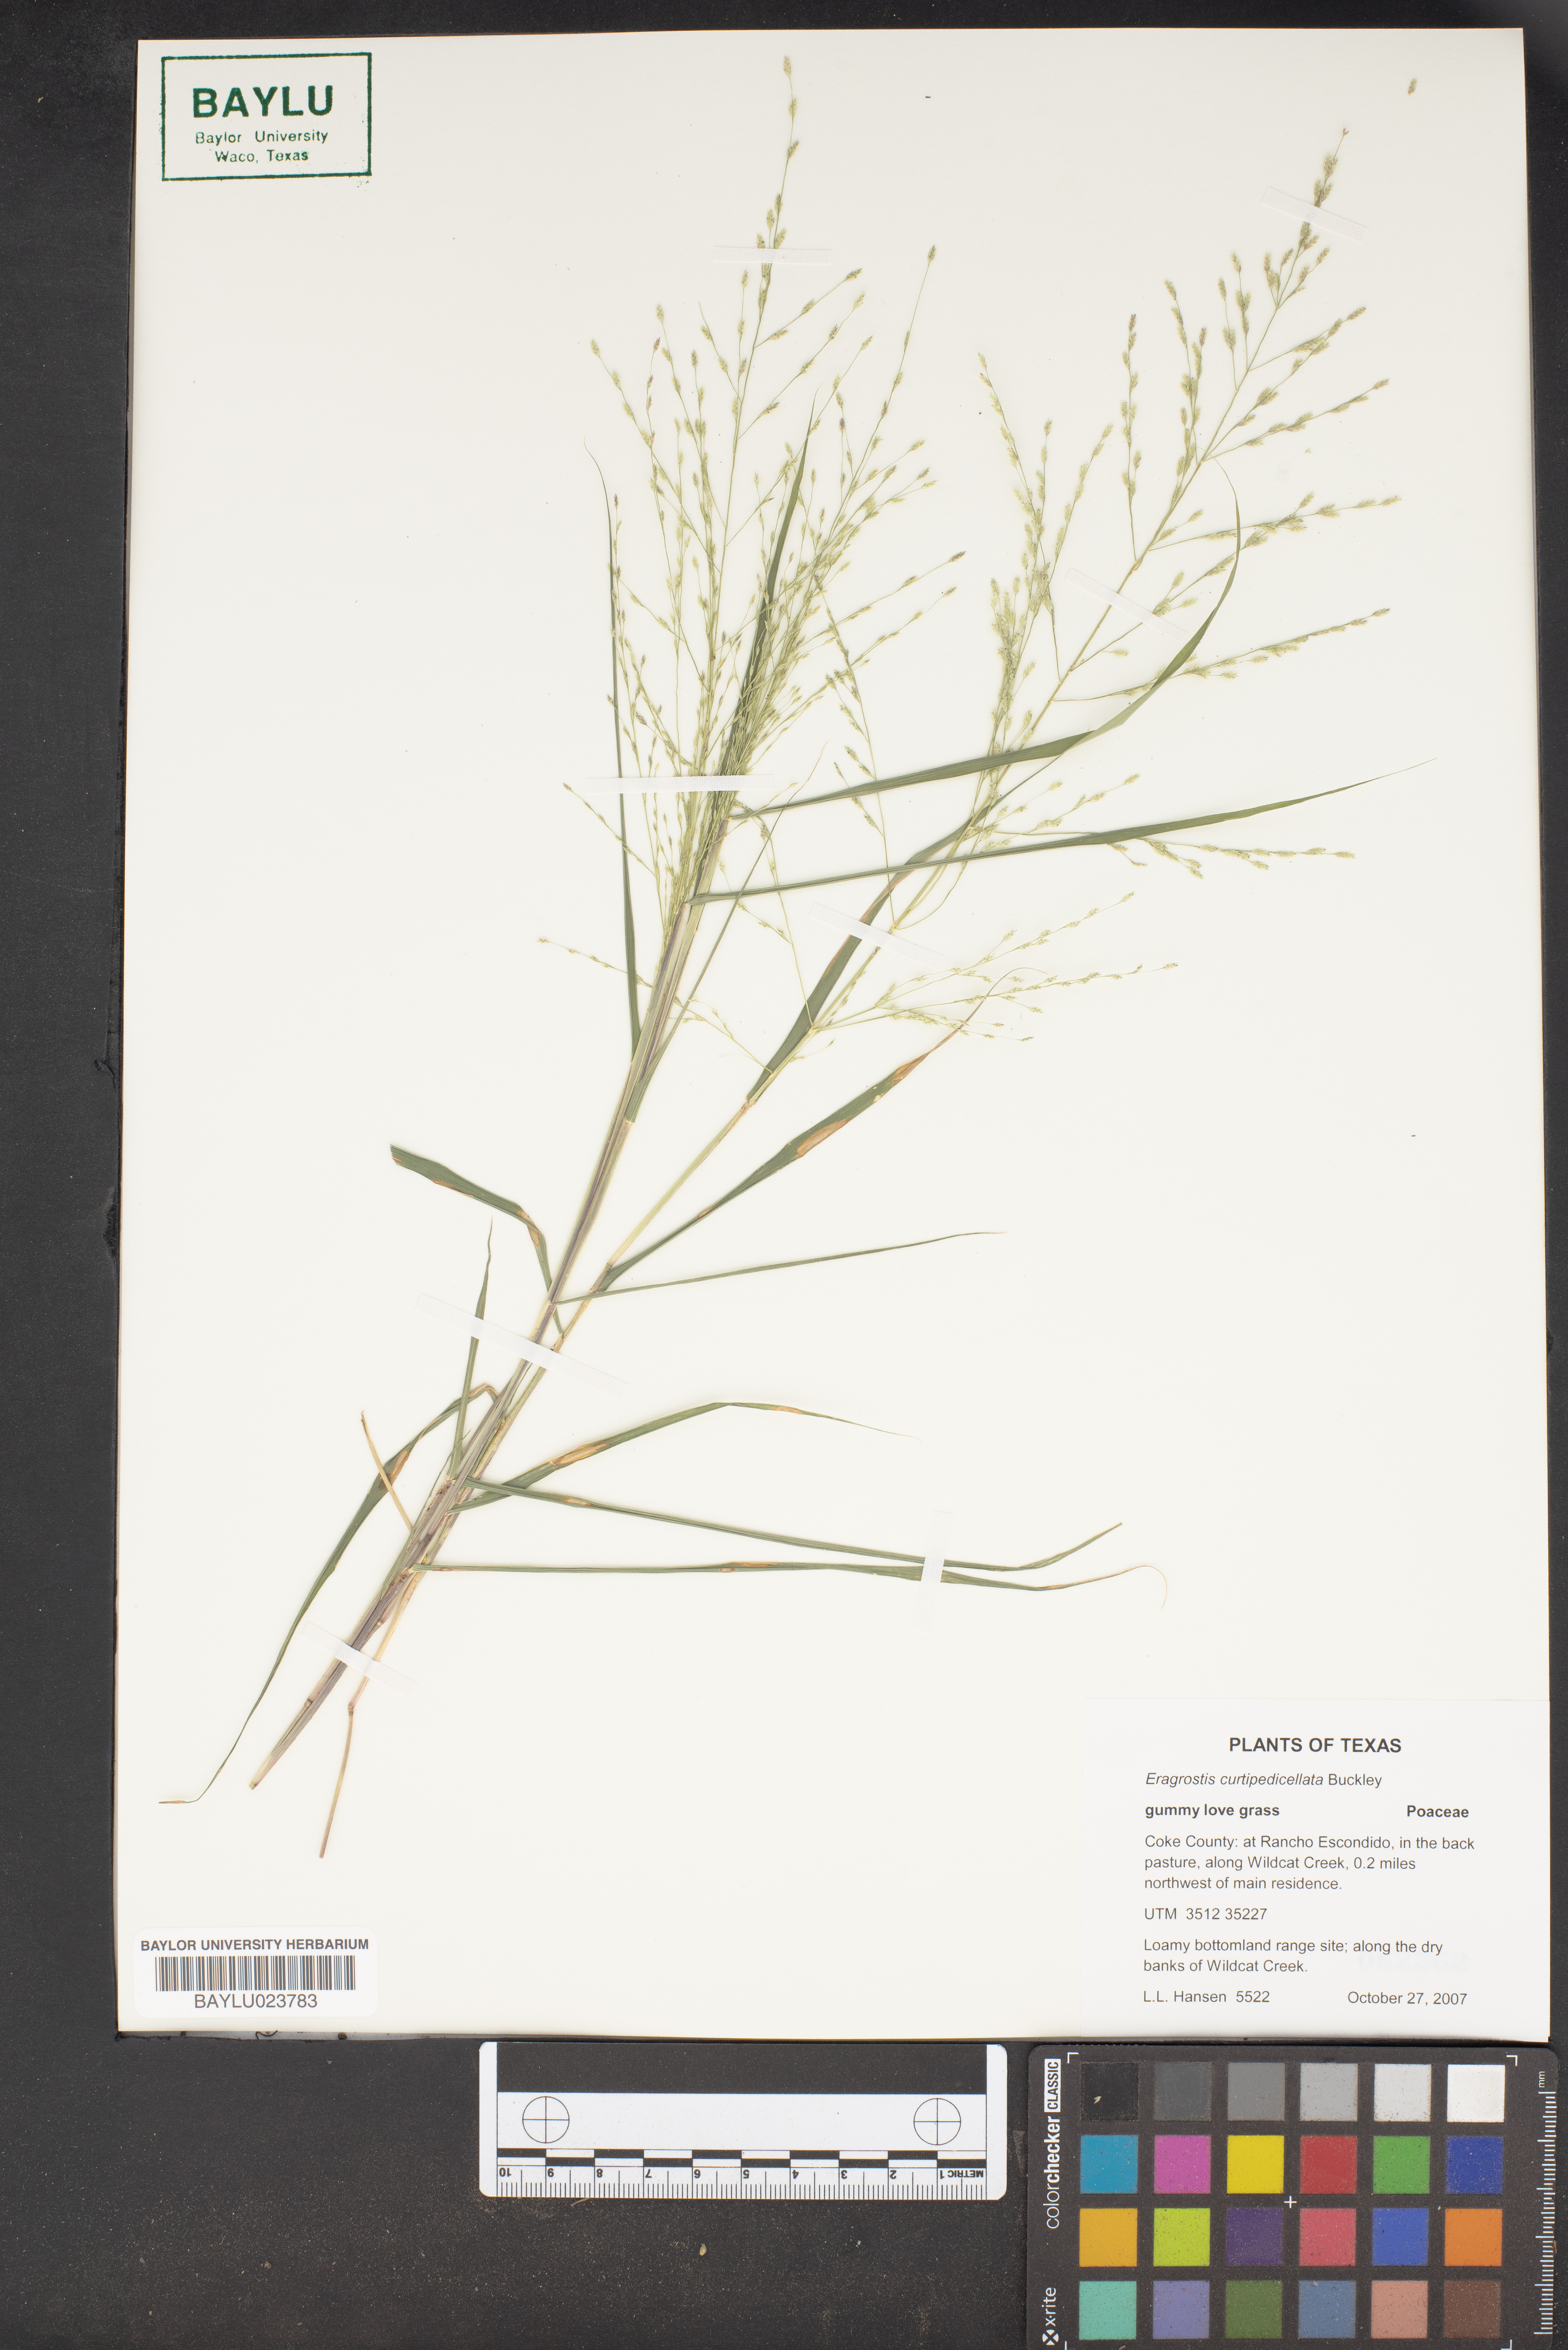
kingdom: Plantae
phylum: Tracheophyta
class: Liliopsida
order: Poales
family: Poaceae
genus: Eragrostis
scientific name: Eragrostis curtipedicellata
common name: Gummy love grass
